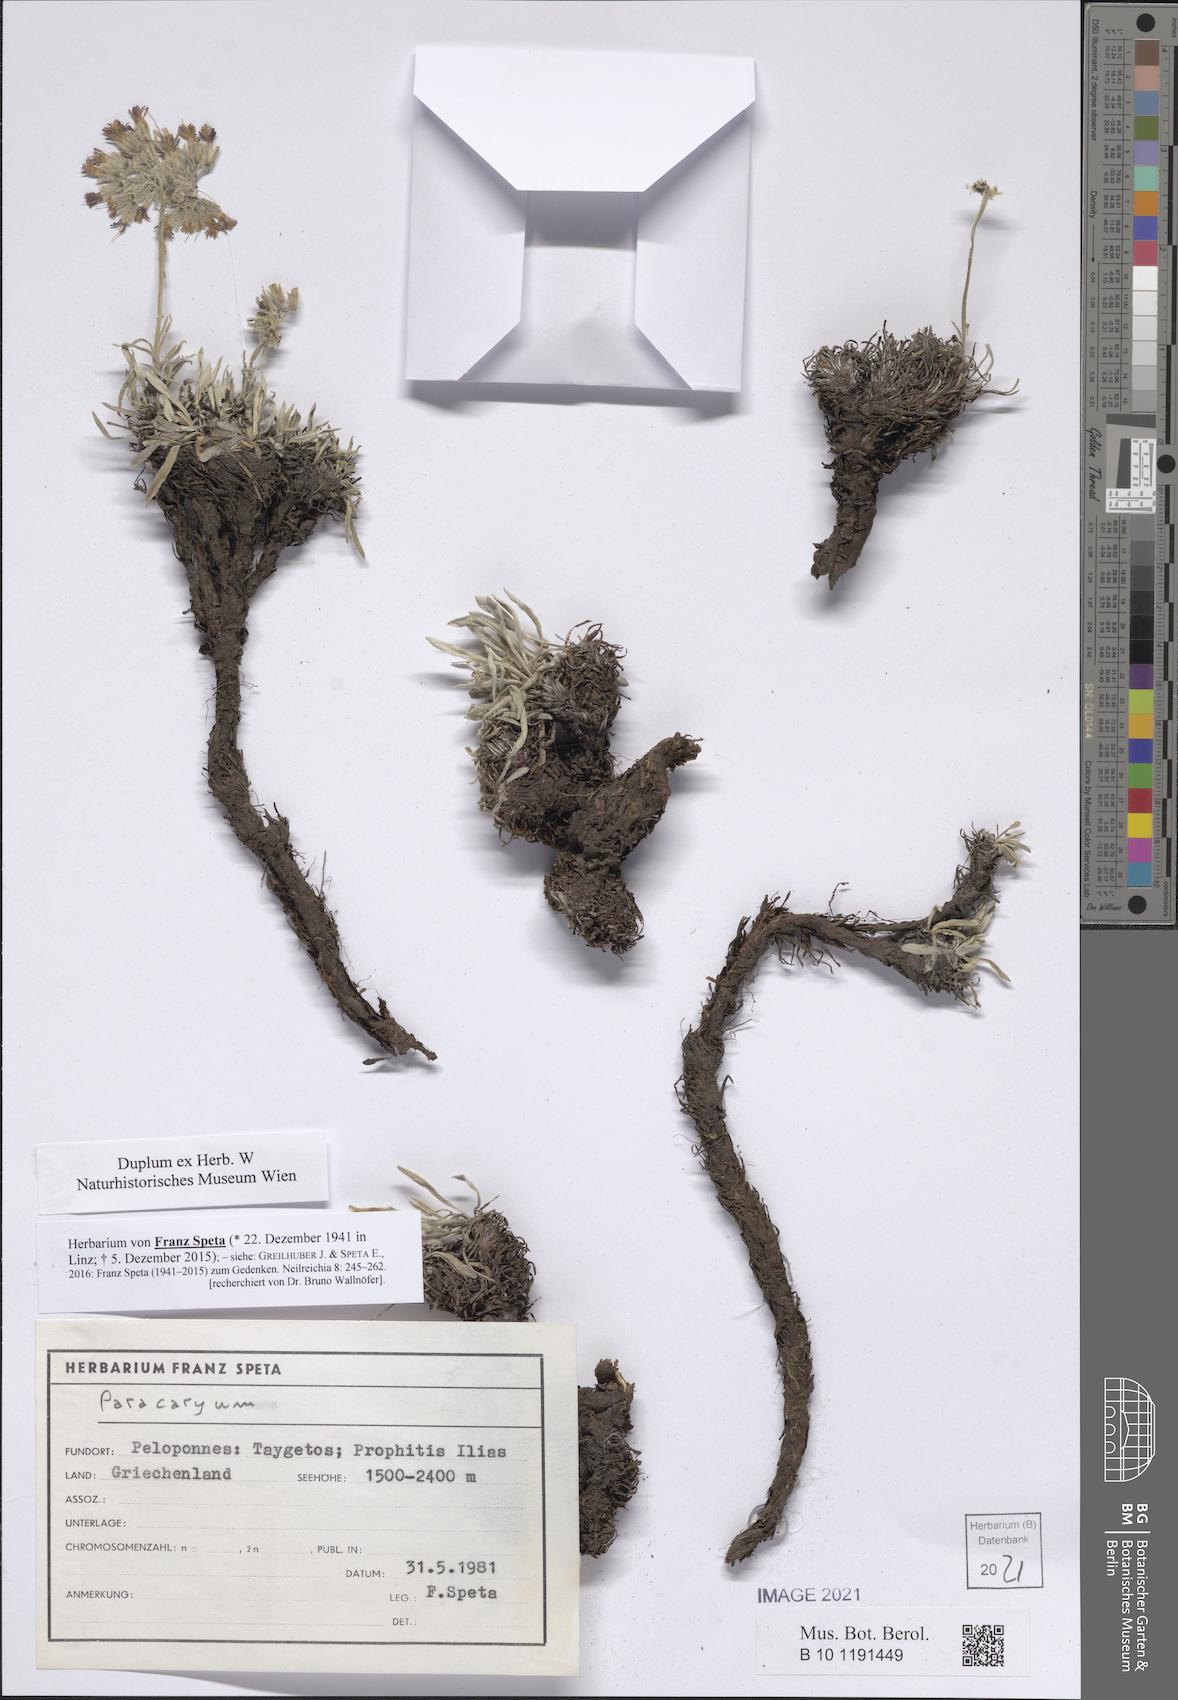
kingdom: Plantae
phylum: Tracheophyta
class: Magnoliopsida
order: Boraginales
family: Boraginaceae
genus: Paracaryum
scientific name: Paracaryum
